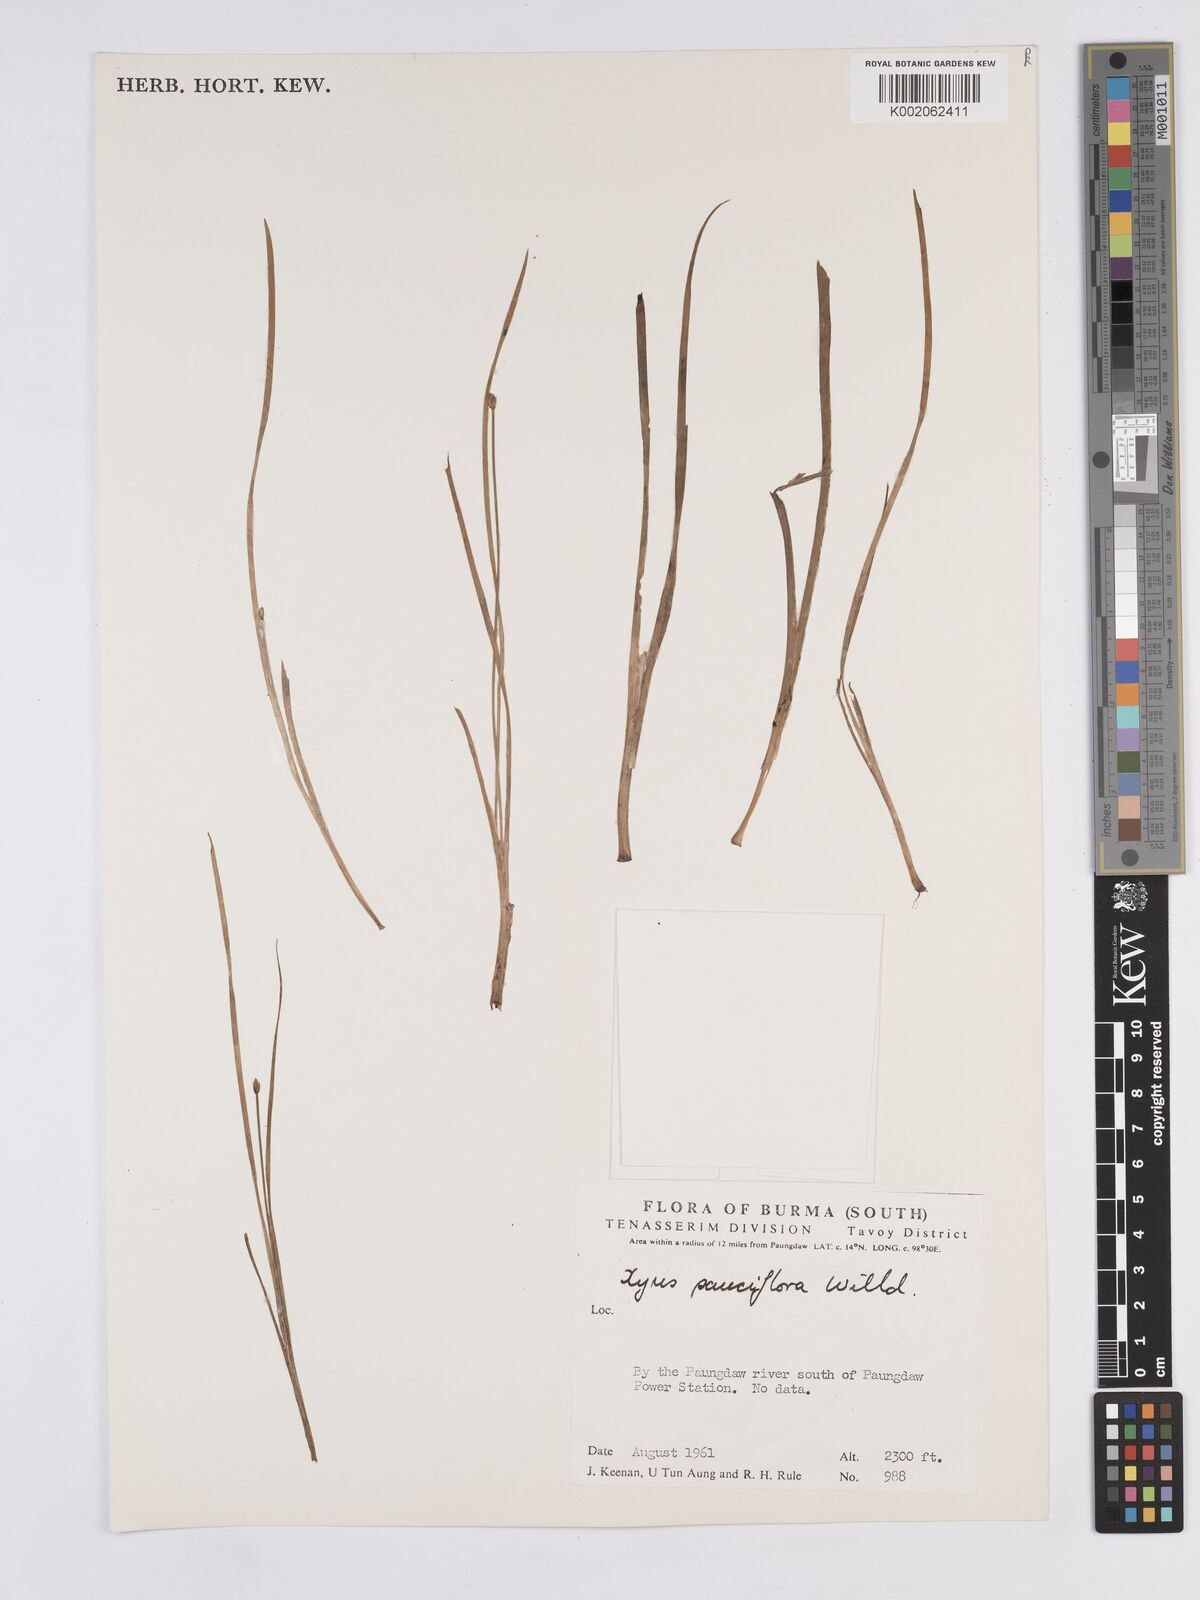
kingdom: Plantae
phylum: Tracheophyta
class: Liliopsida
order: Poales
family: Xyridaceae
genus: Xyris
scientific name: Xyris pauciflora
